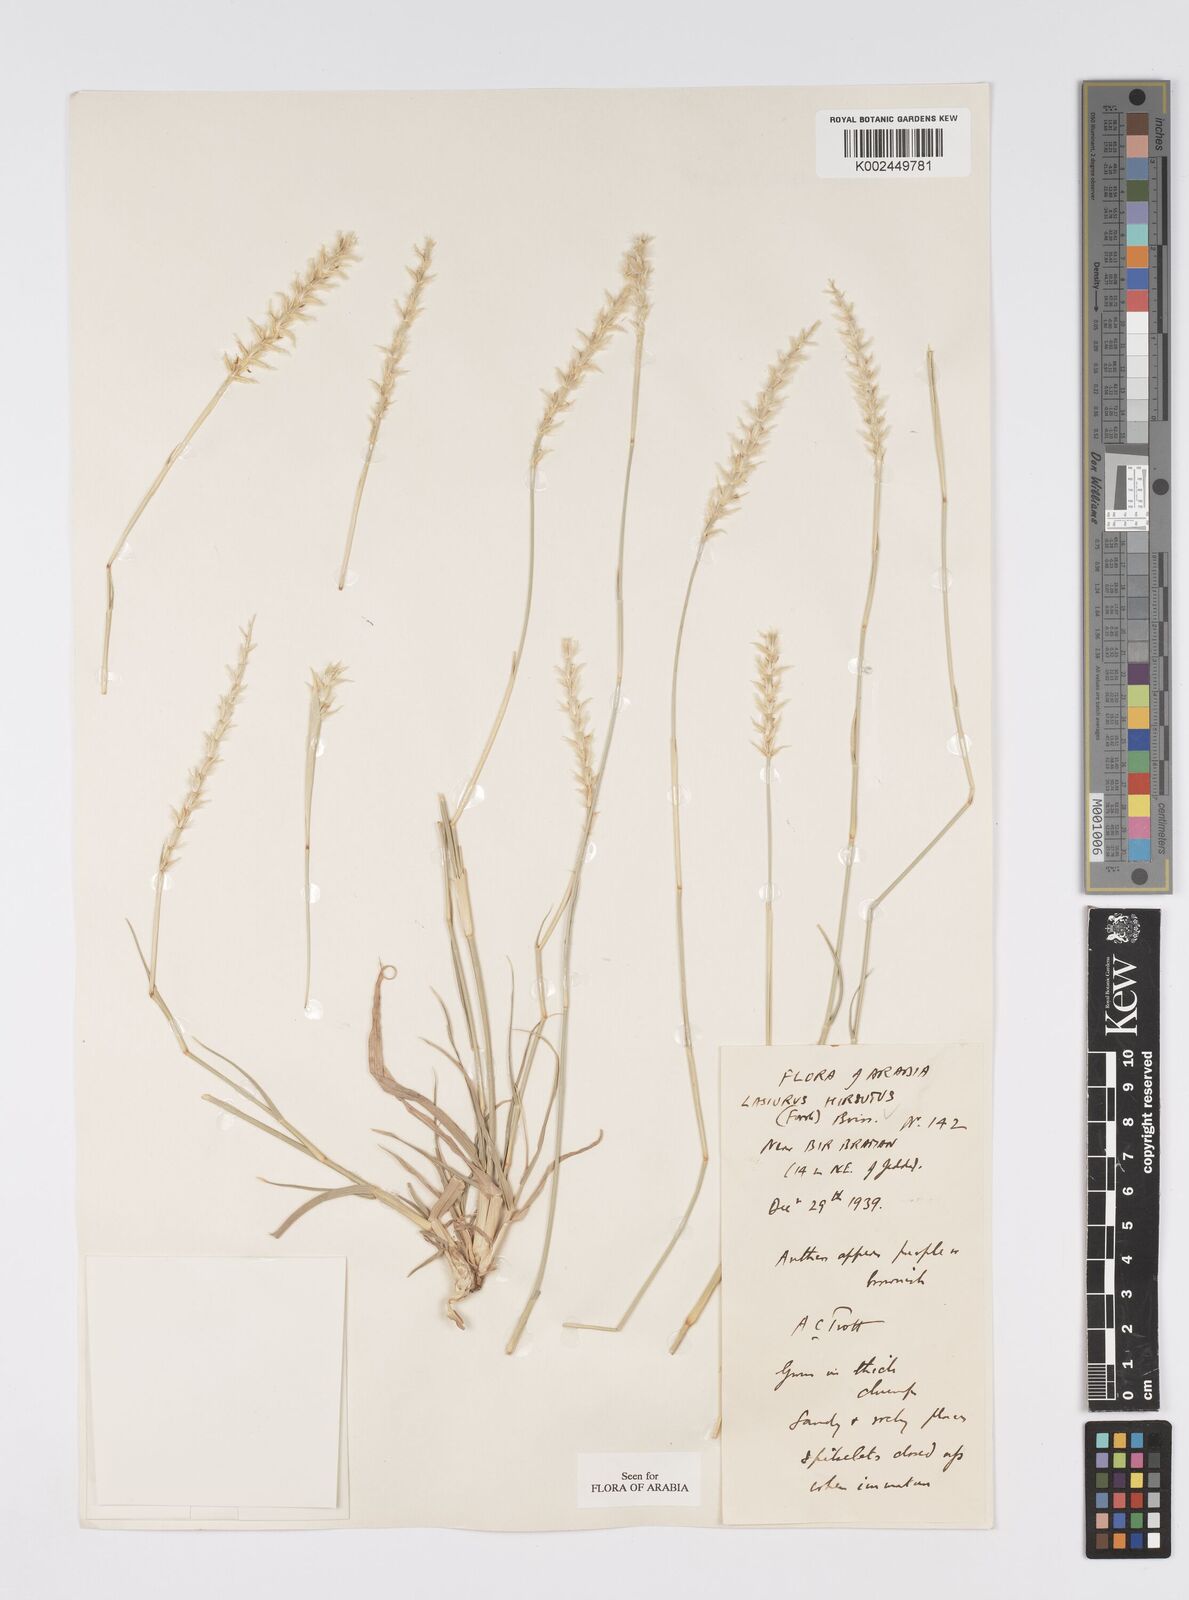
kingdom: Plantae
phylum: Tracheophyta
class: Liliopsida
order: Poales
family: Poaceae
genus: Lasiurus
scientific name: Lasiurus scindicus
